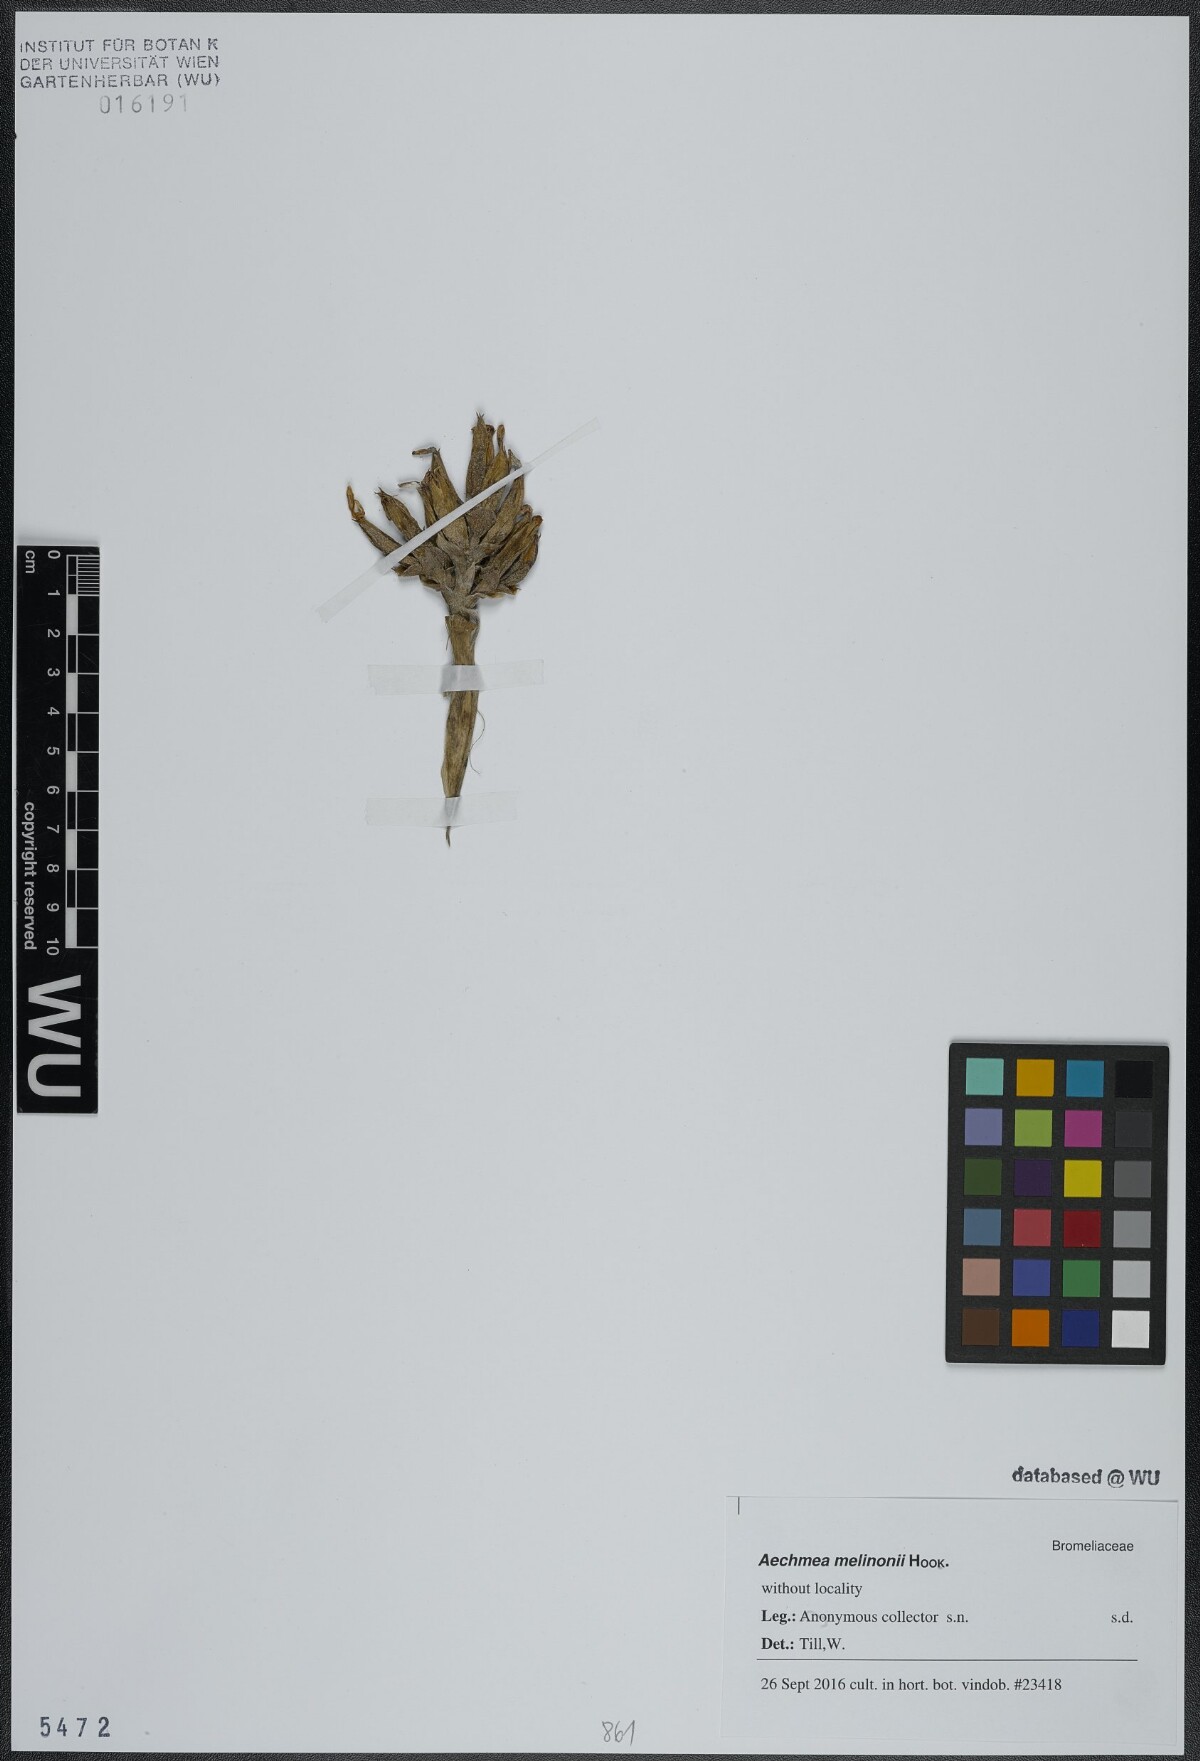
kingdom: Plantae
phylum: Tracheophyta
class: Liliopsida
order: Poales
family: Bromeliaceae
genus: Aechmea
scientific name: Aechmea melinonii
